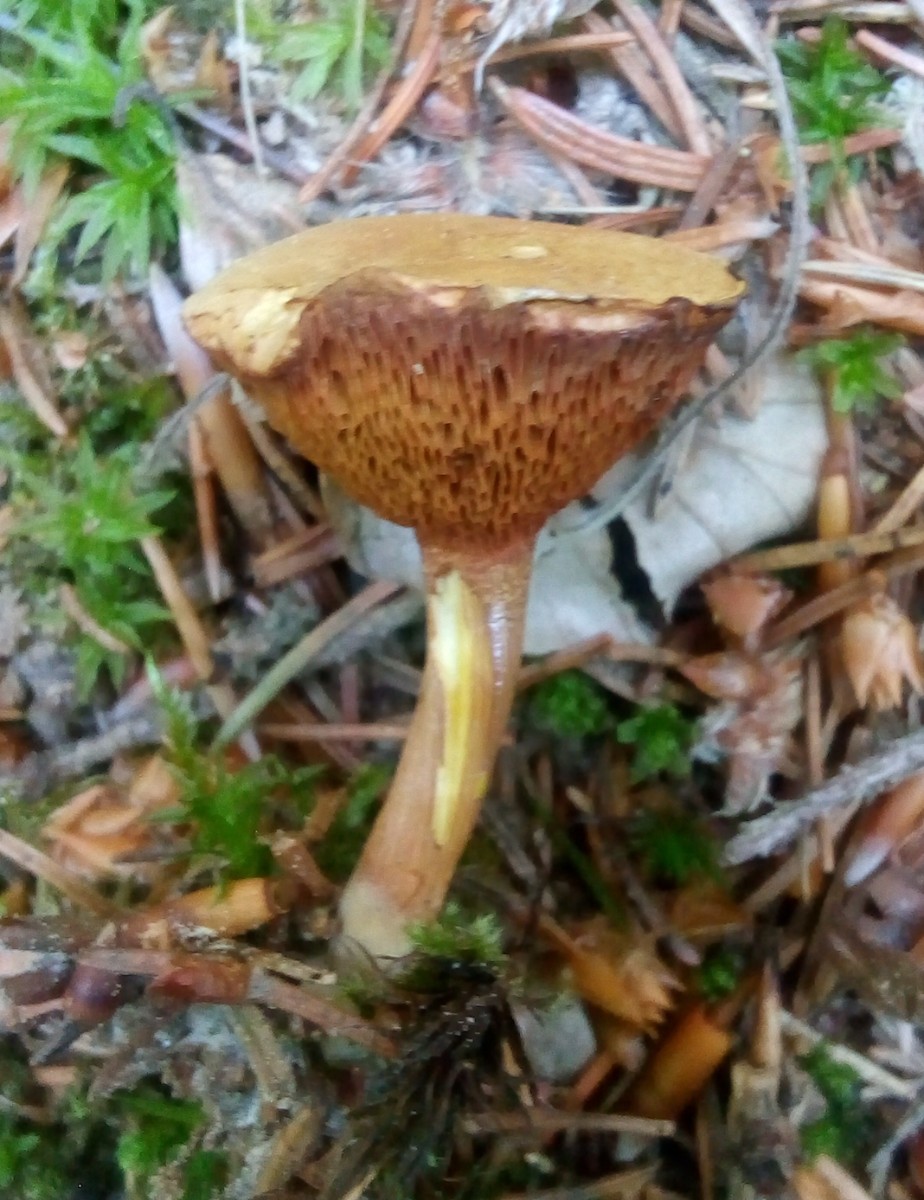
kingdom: Fungi
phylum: Basidiomycota
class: Agaricomycetes
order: Boletales
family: Boletaceae
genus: Chalciporus
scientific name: Chalciporus piperatus
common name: peberrørhat
